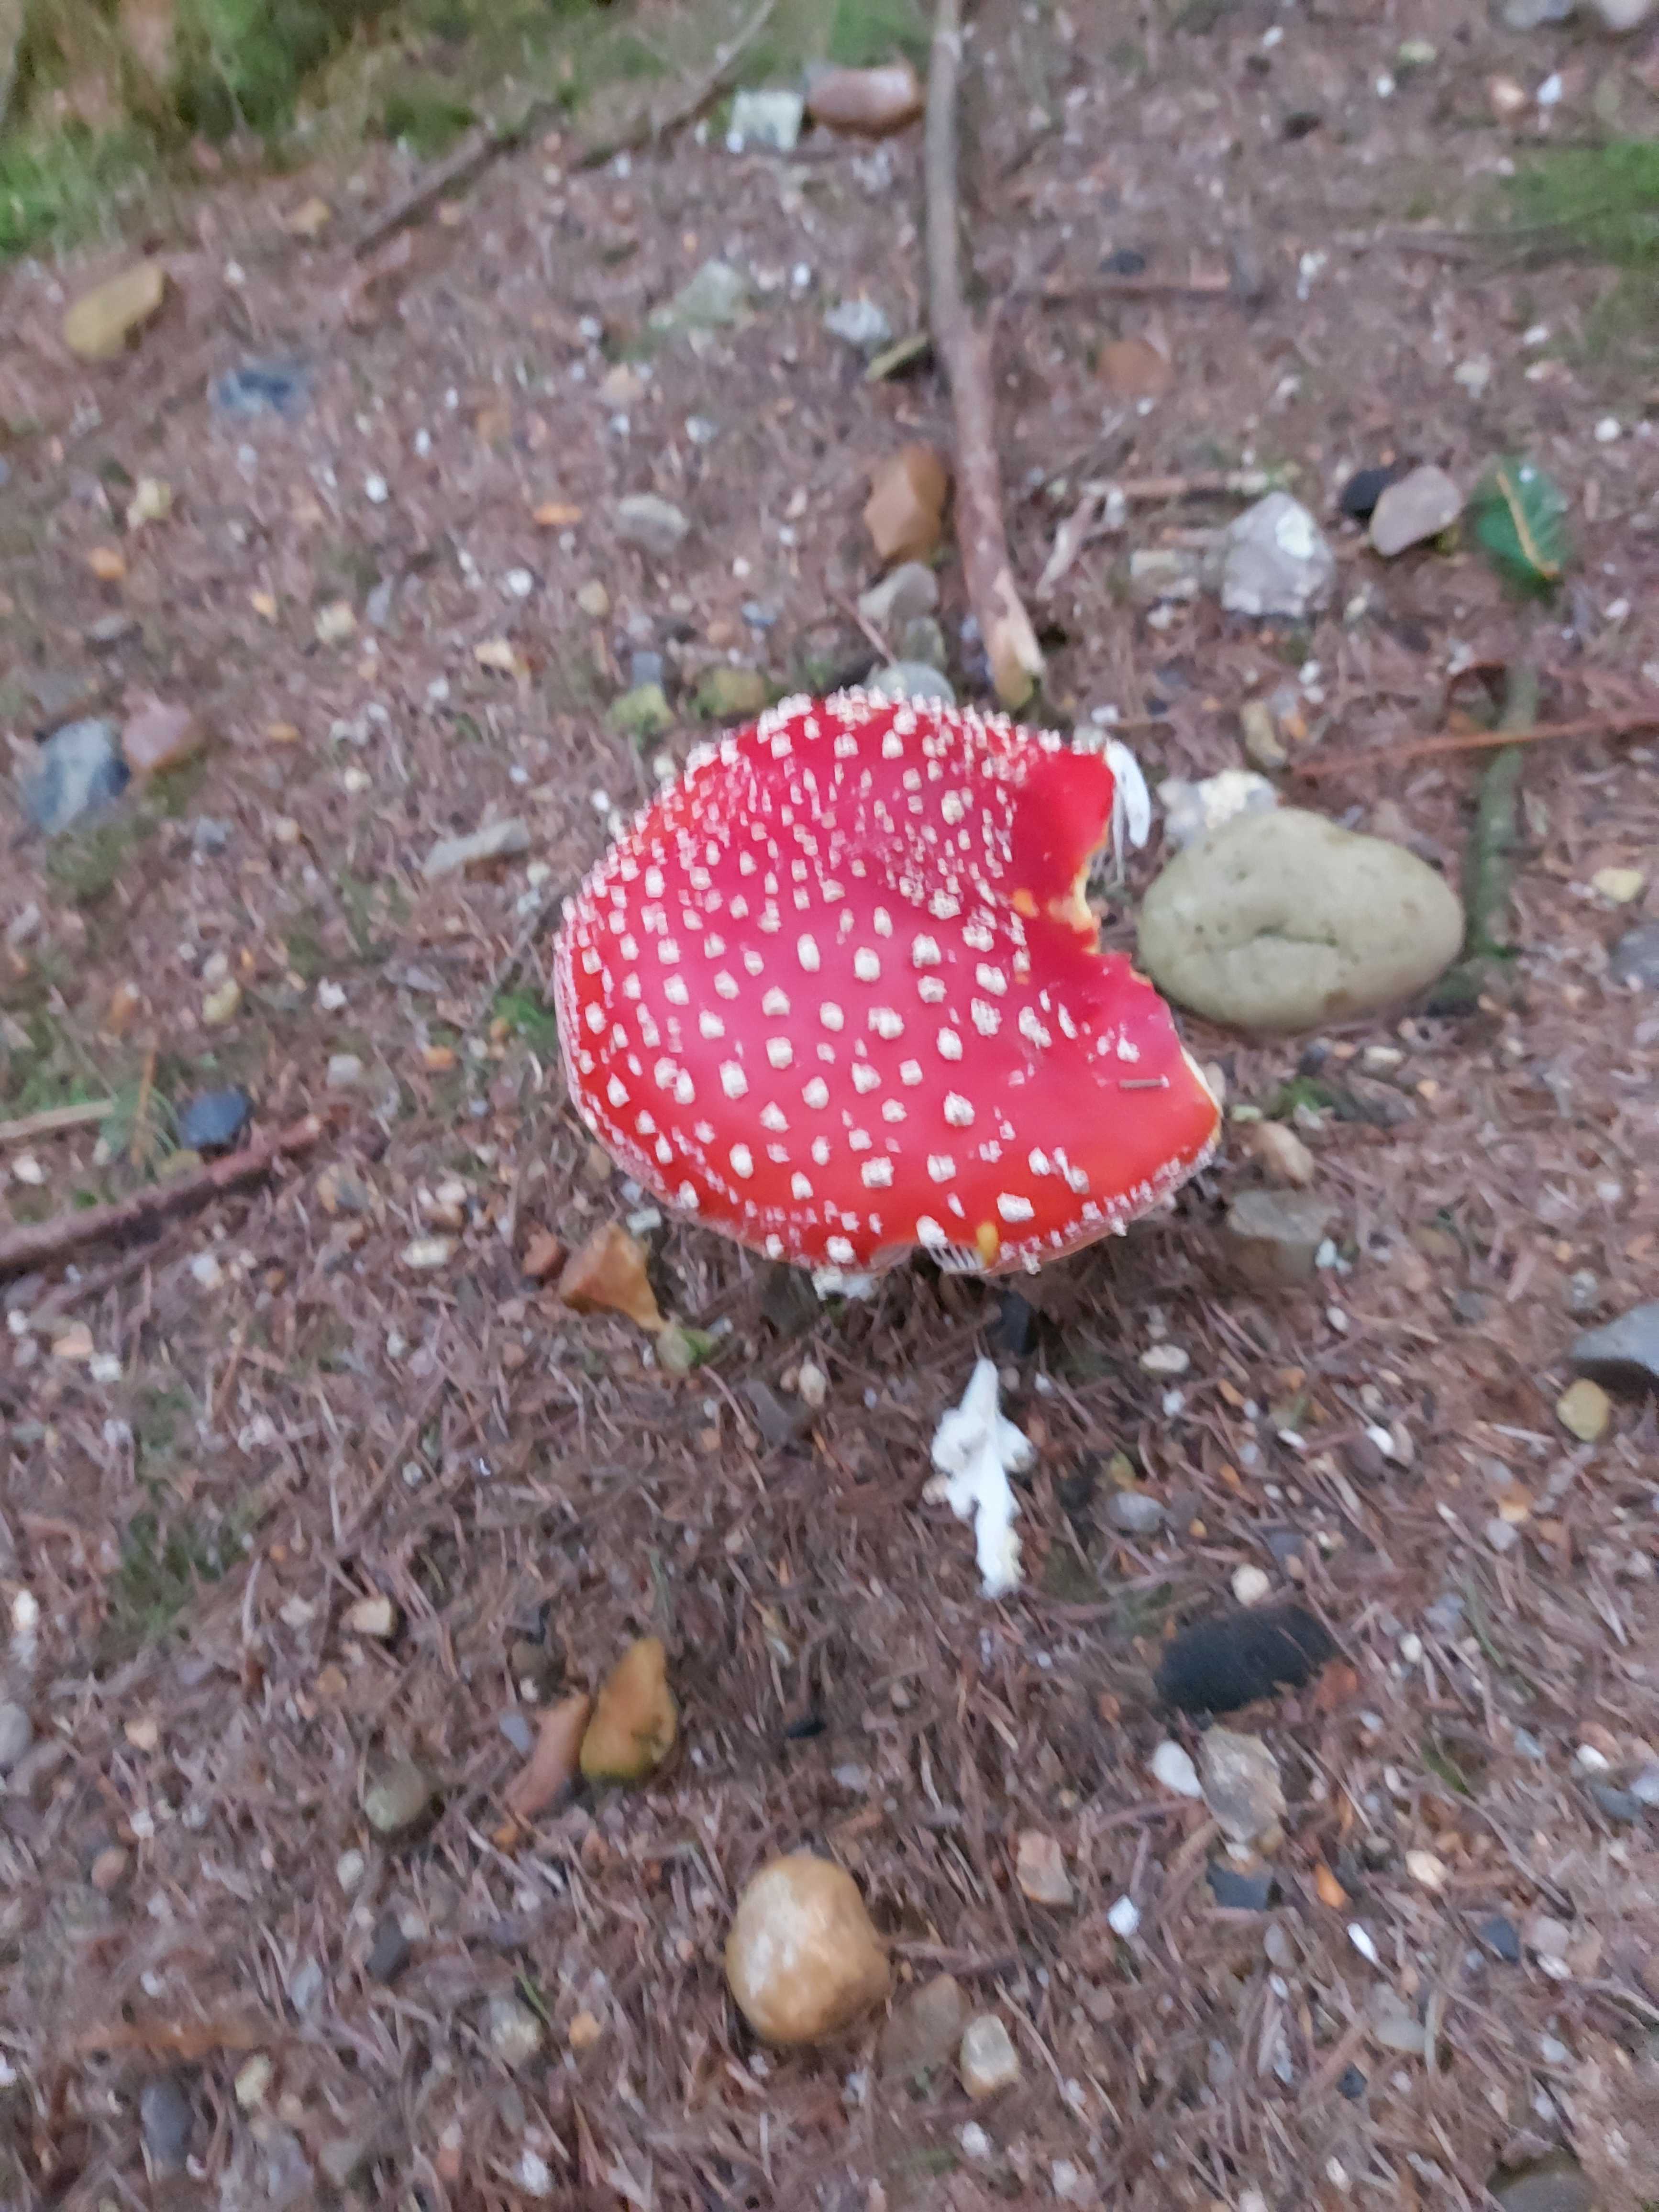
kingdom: Fungi
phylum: Basidiomycota
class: Agaricomycetes
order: Agaricales
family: Amanitaceae
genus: Amanita
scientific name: Amanita muscaria
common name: rød fluesvamp
